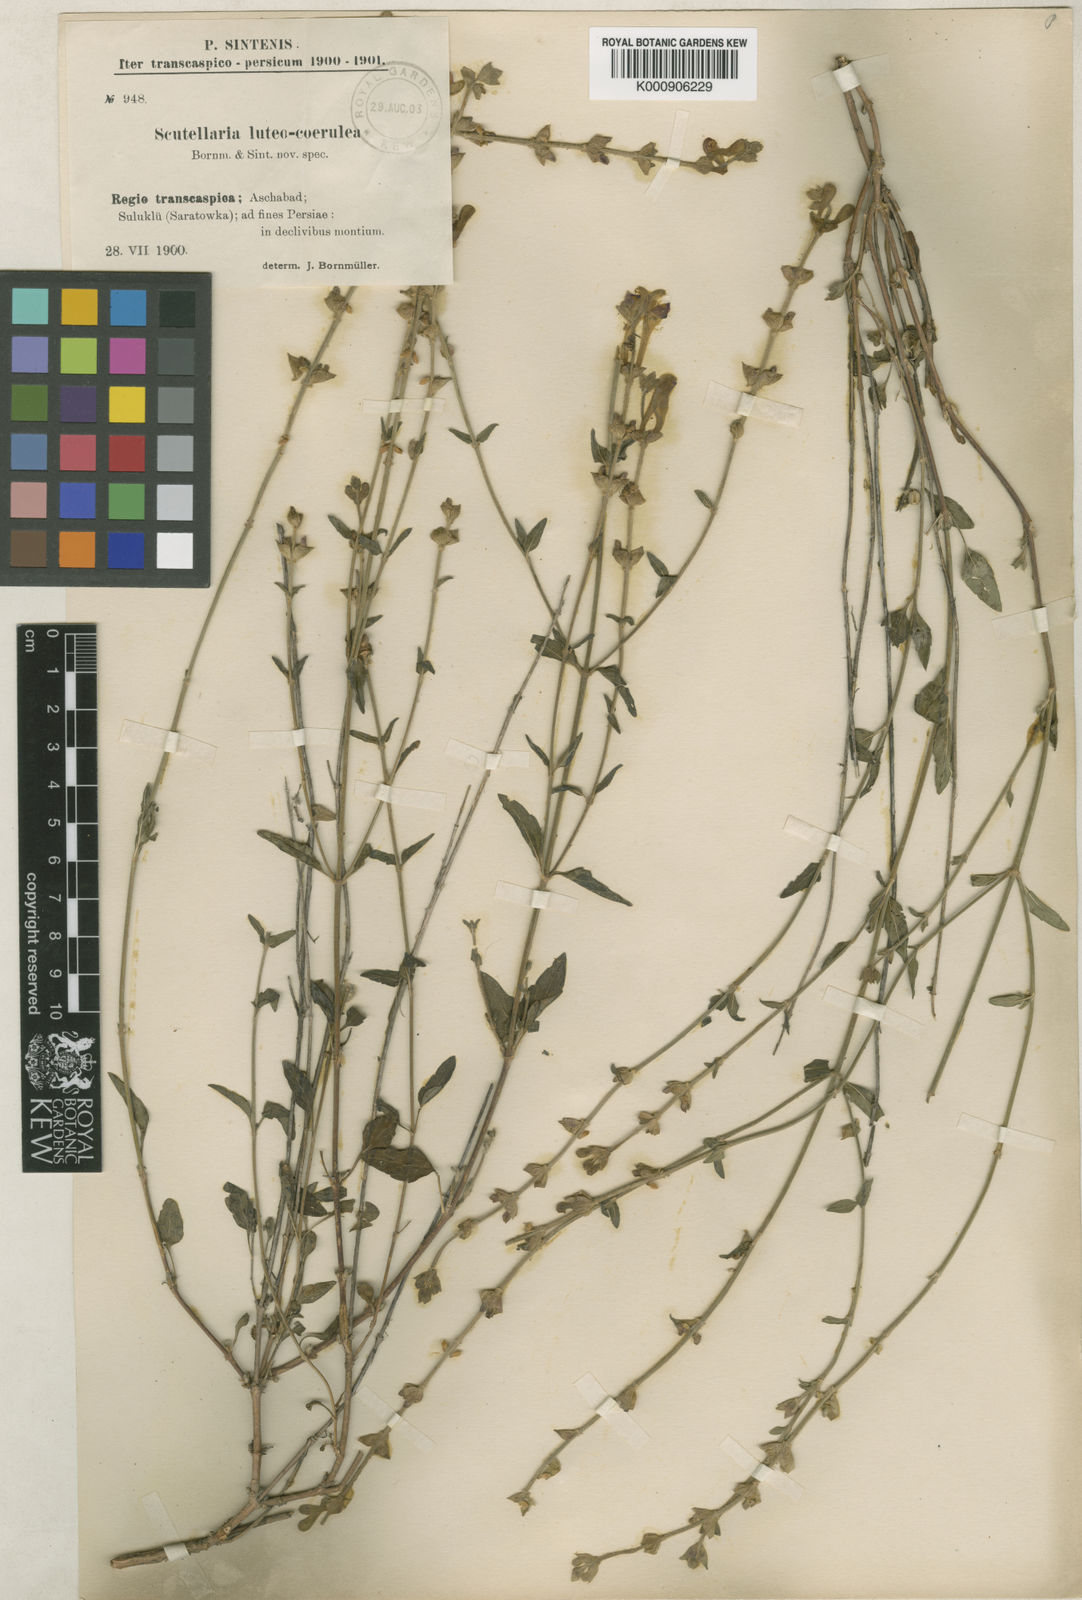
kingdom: Plantae
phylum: Tracheophyta
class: Magnoliopsida
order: Lamiales
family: Lamiaceae
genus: Scutellaria
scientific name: Scutellaria multicaulis
